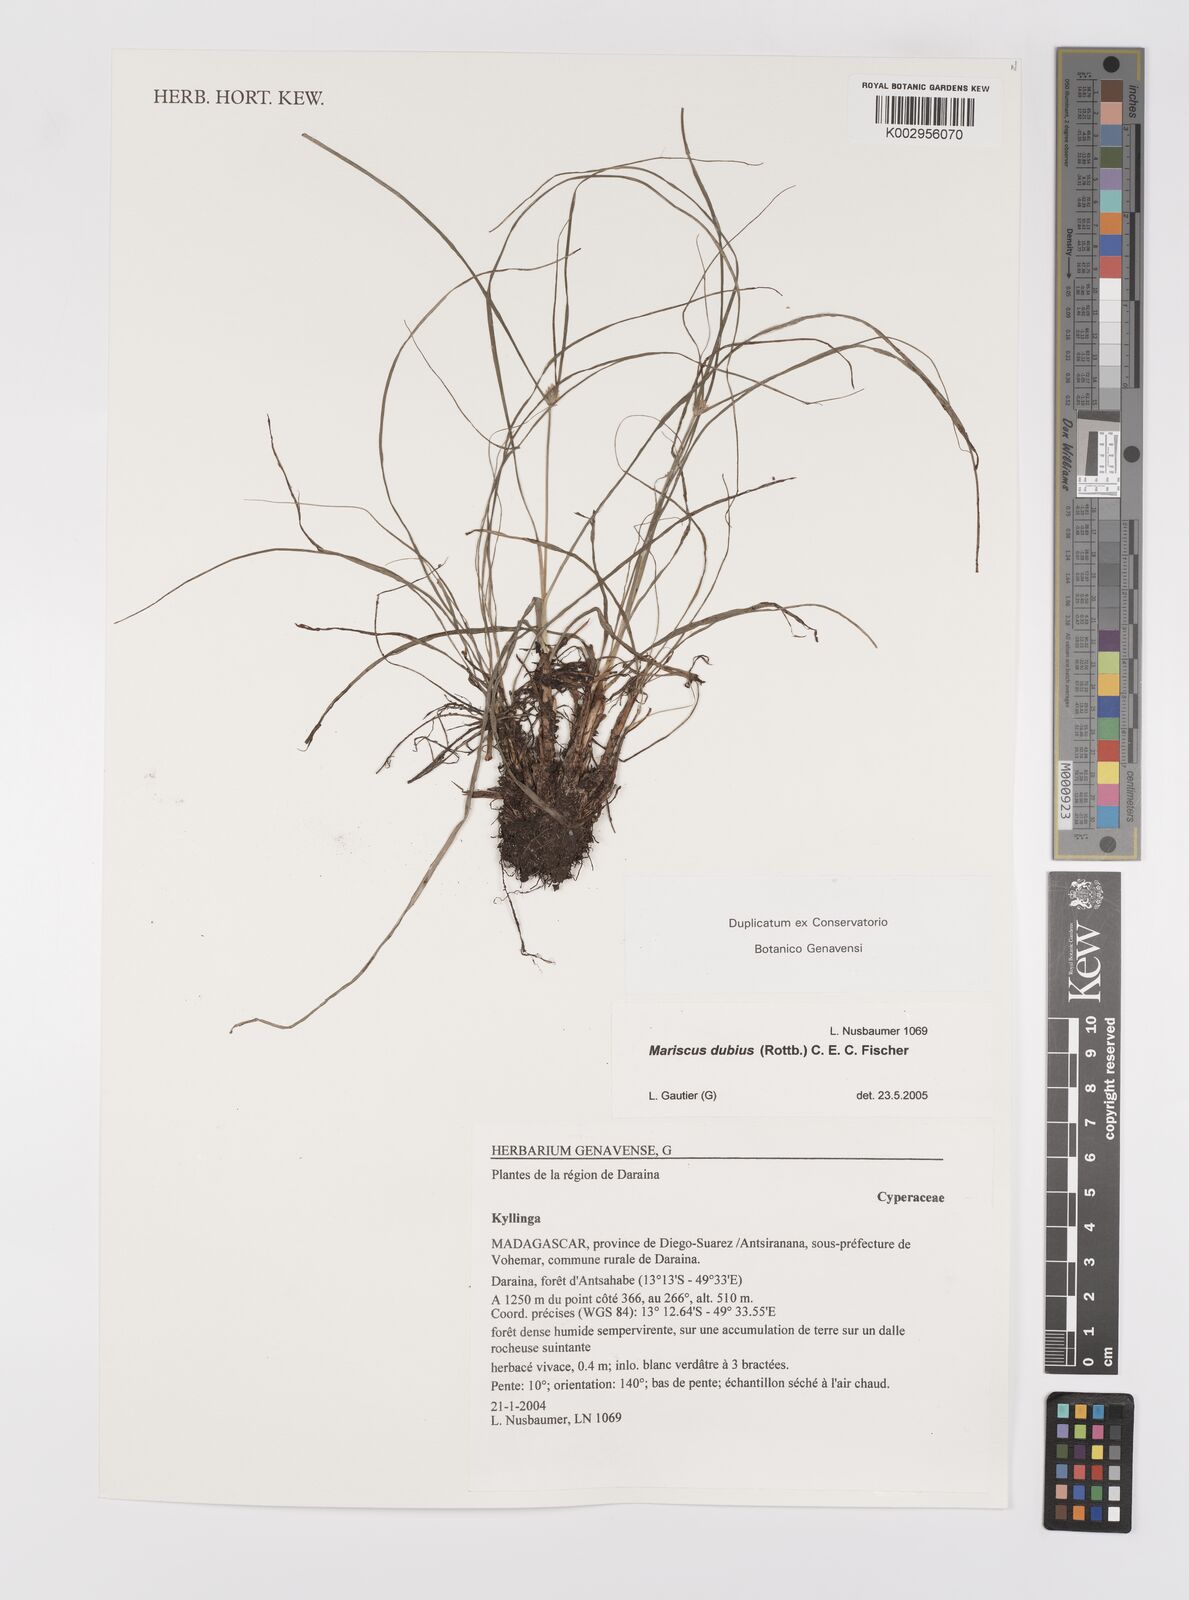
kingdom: Plantae
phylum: Tracheophyta
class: Liliopsida
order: Poales
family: Cyperaceae
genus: Cyperus
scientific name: Cyperus dubius
